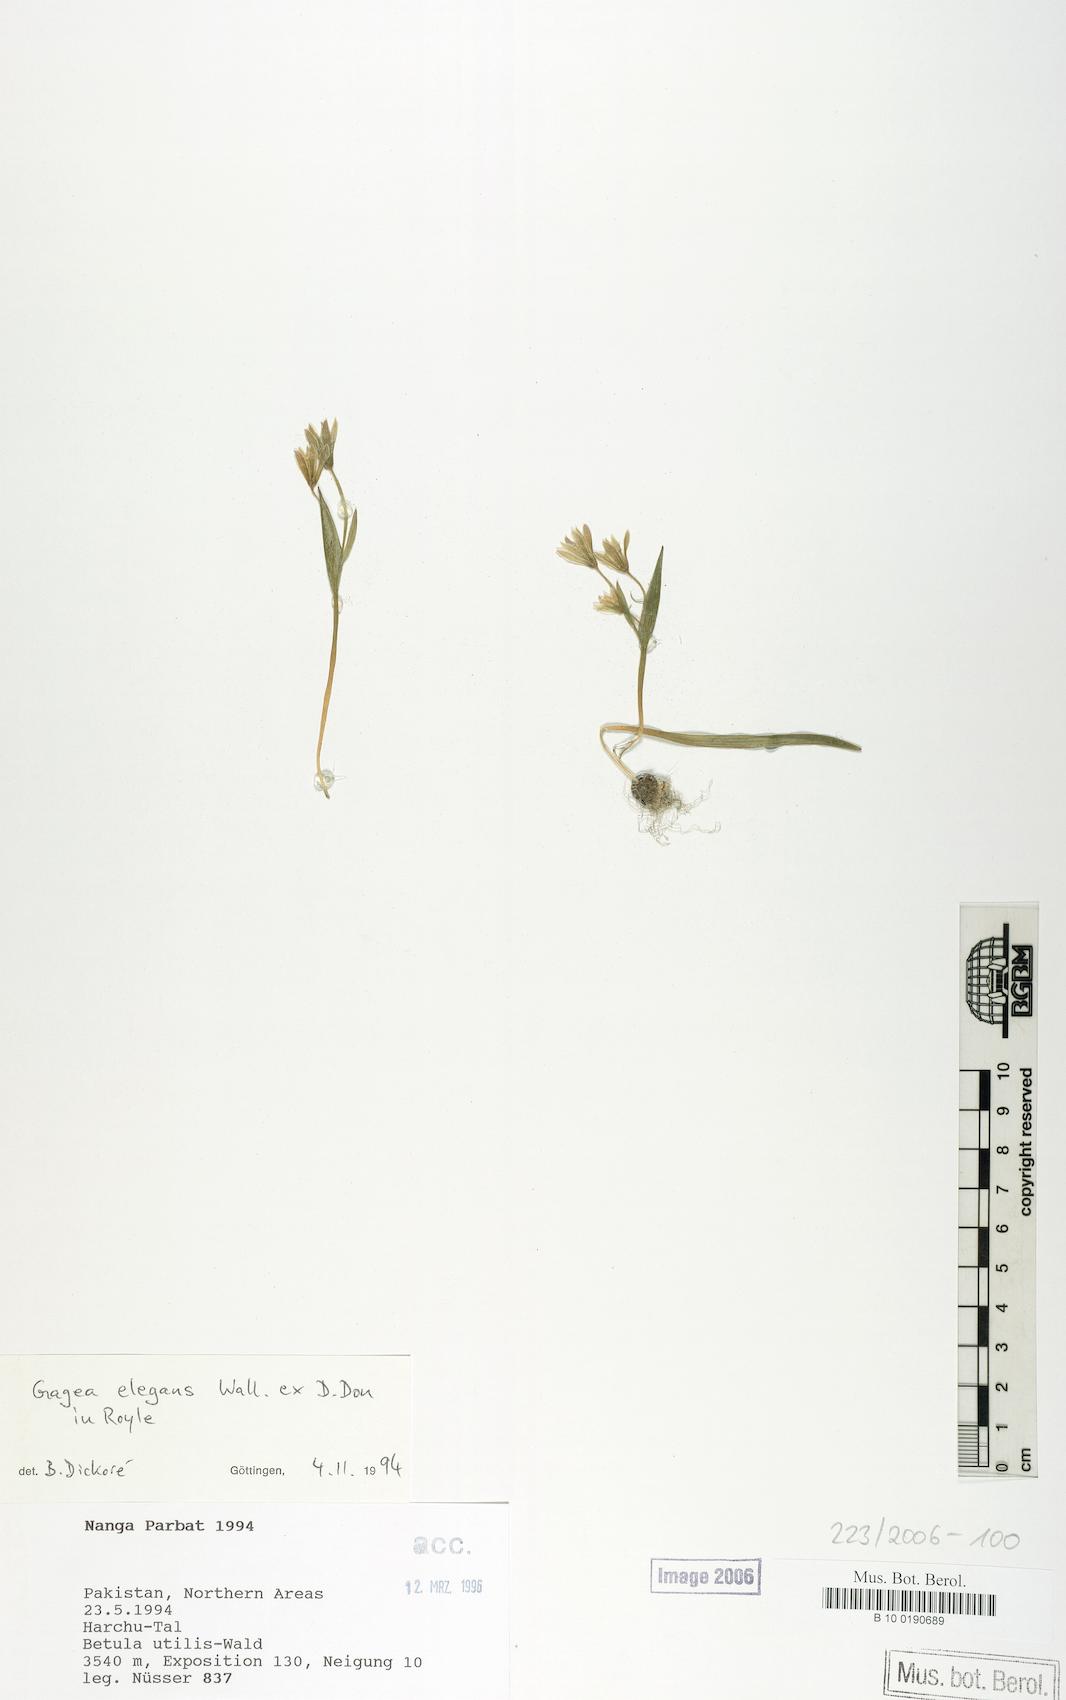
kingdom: Plantae
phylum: Tracheophyta
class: Liliopsida
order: Liliales
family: Liliaceae
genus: Gagea
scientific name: Gagea elegans
